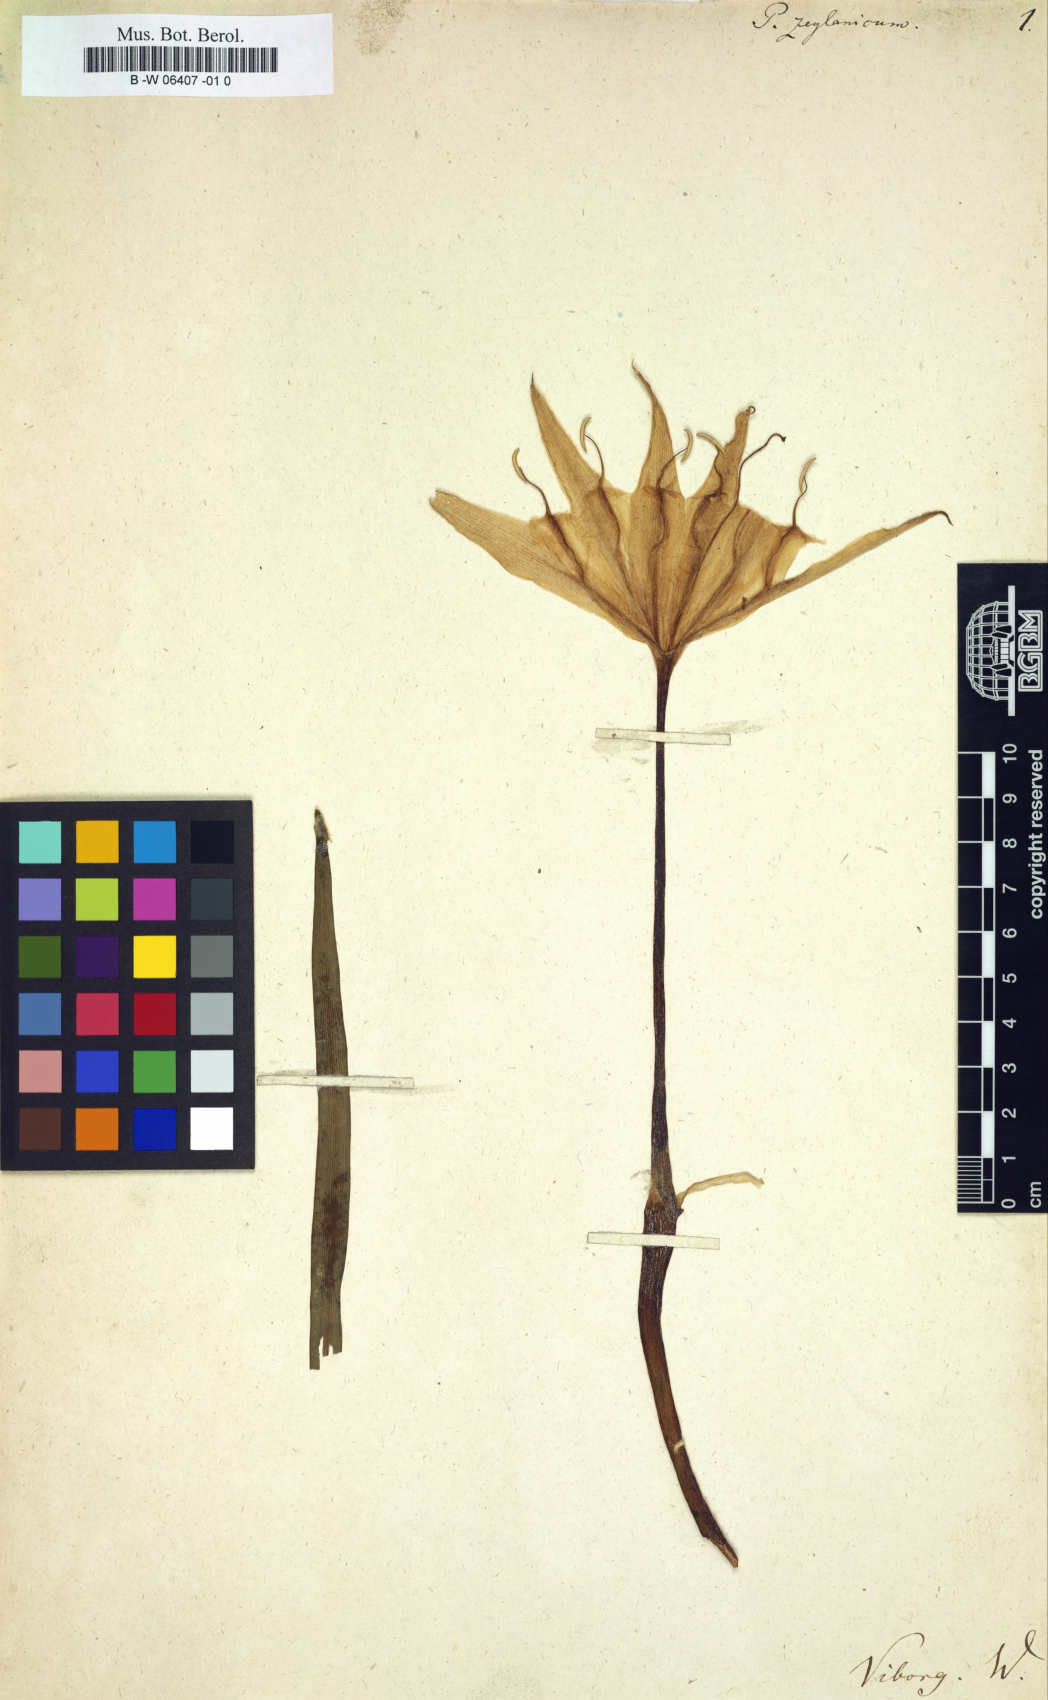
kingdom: Plantae
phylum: Tracheophyta
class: Liliopsida
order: Asparagales
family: Amaryllidaceae
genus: Pancratium
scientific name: Pancratium zeylanicum
